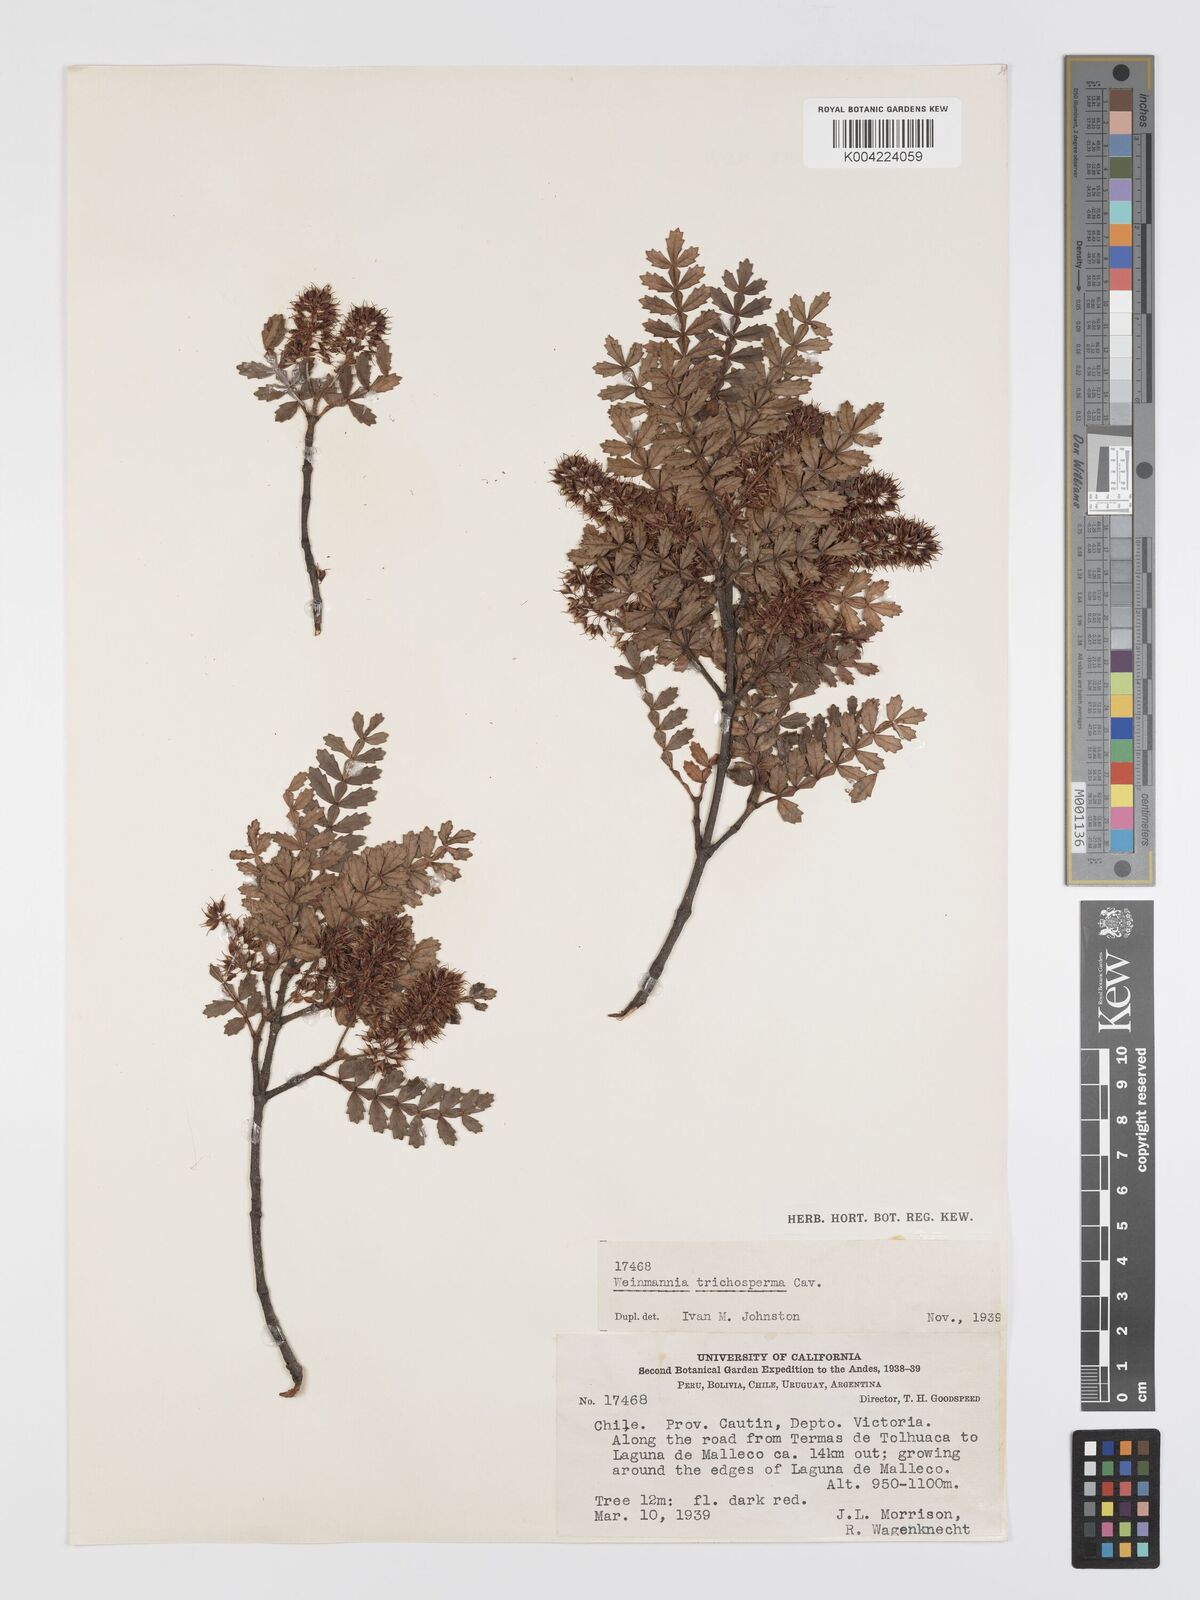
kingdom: Plantae
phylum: Tracheophyta
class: Magnoliopsida
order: Oxalidales
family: Cunoniaceae
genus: Weinmannia
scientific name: Weinmannia trichosperma
